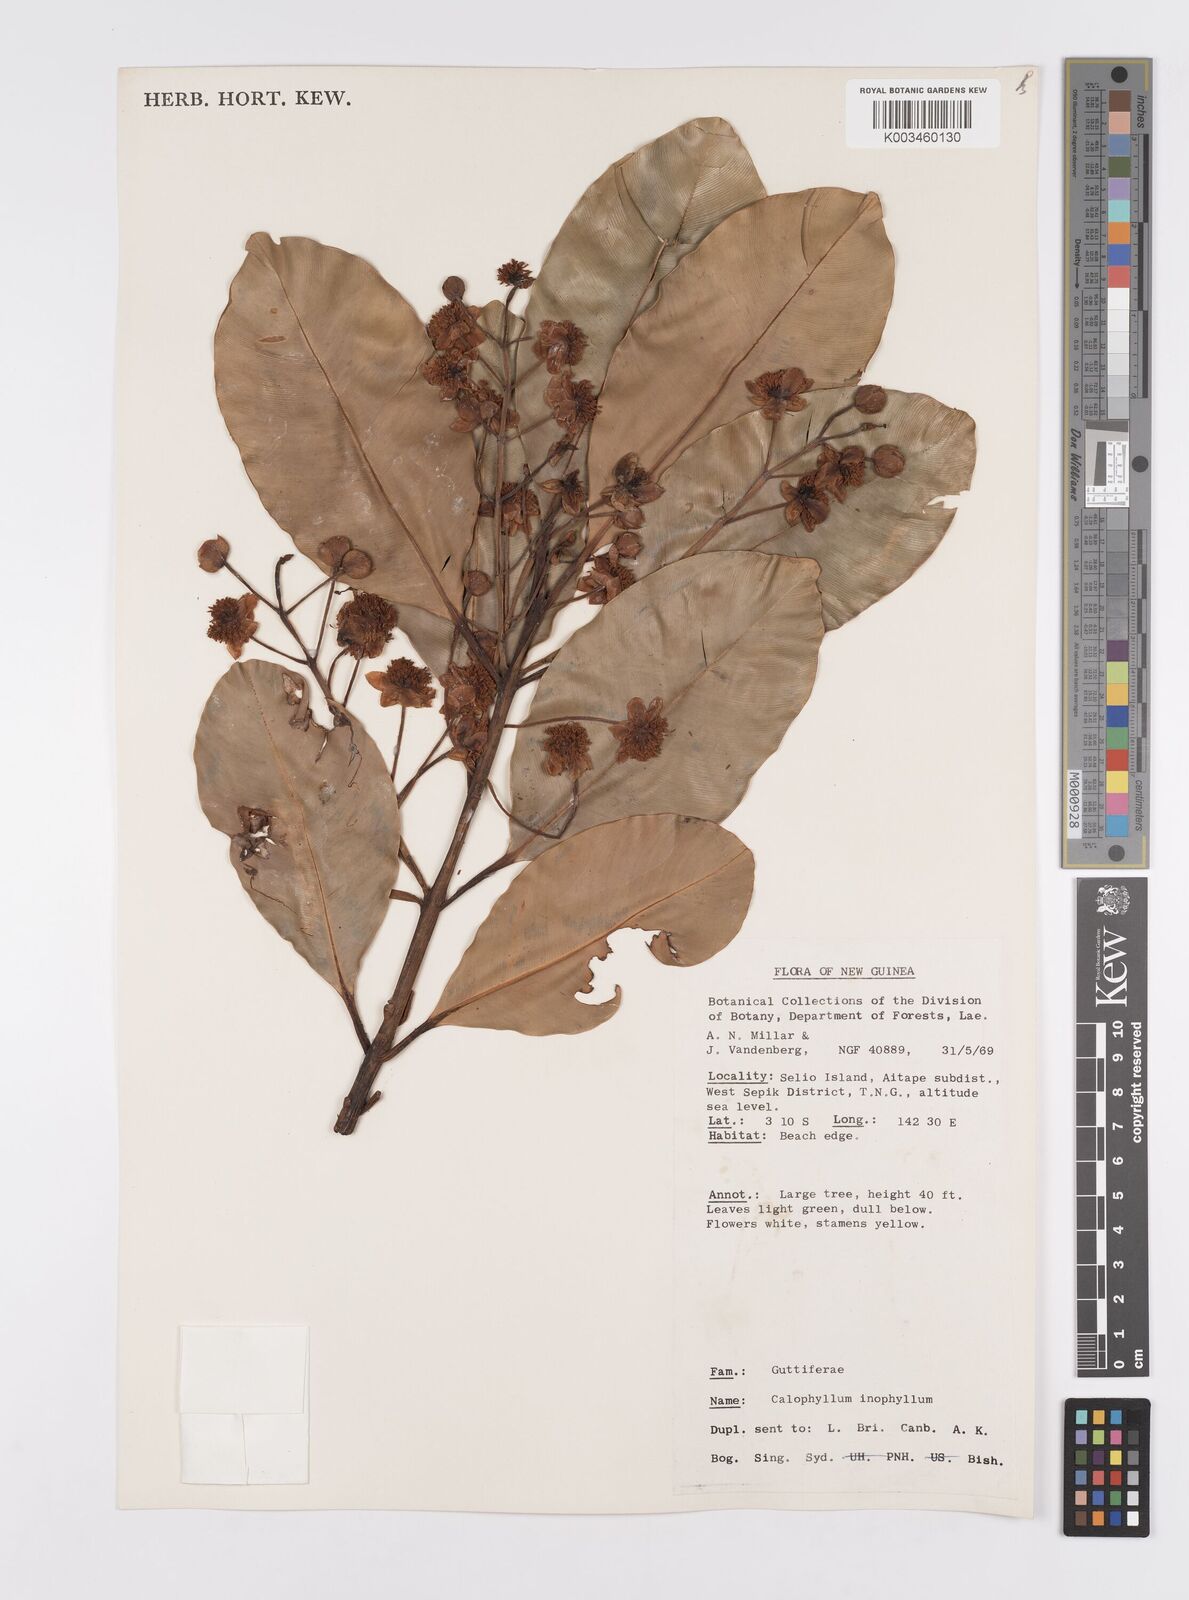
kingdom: Plantae
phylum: Tracheophyta
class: Magnoliopsida
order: Malpighiales
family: Calophyllaceae
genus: Calophyllum
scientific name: Calophyllum inophyllum
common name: Alexandrian laurel
